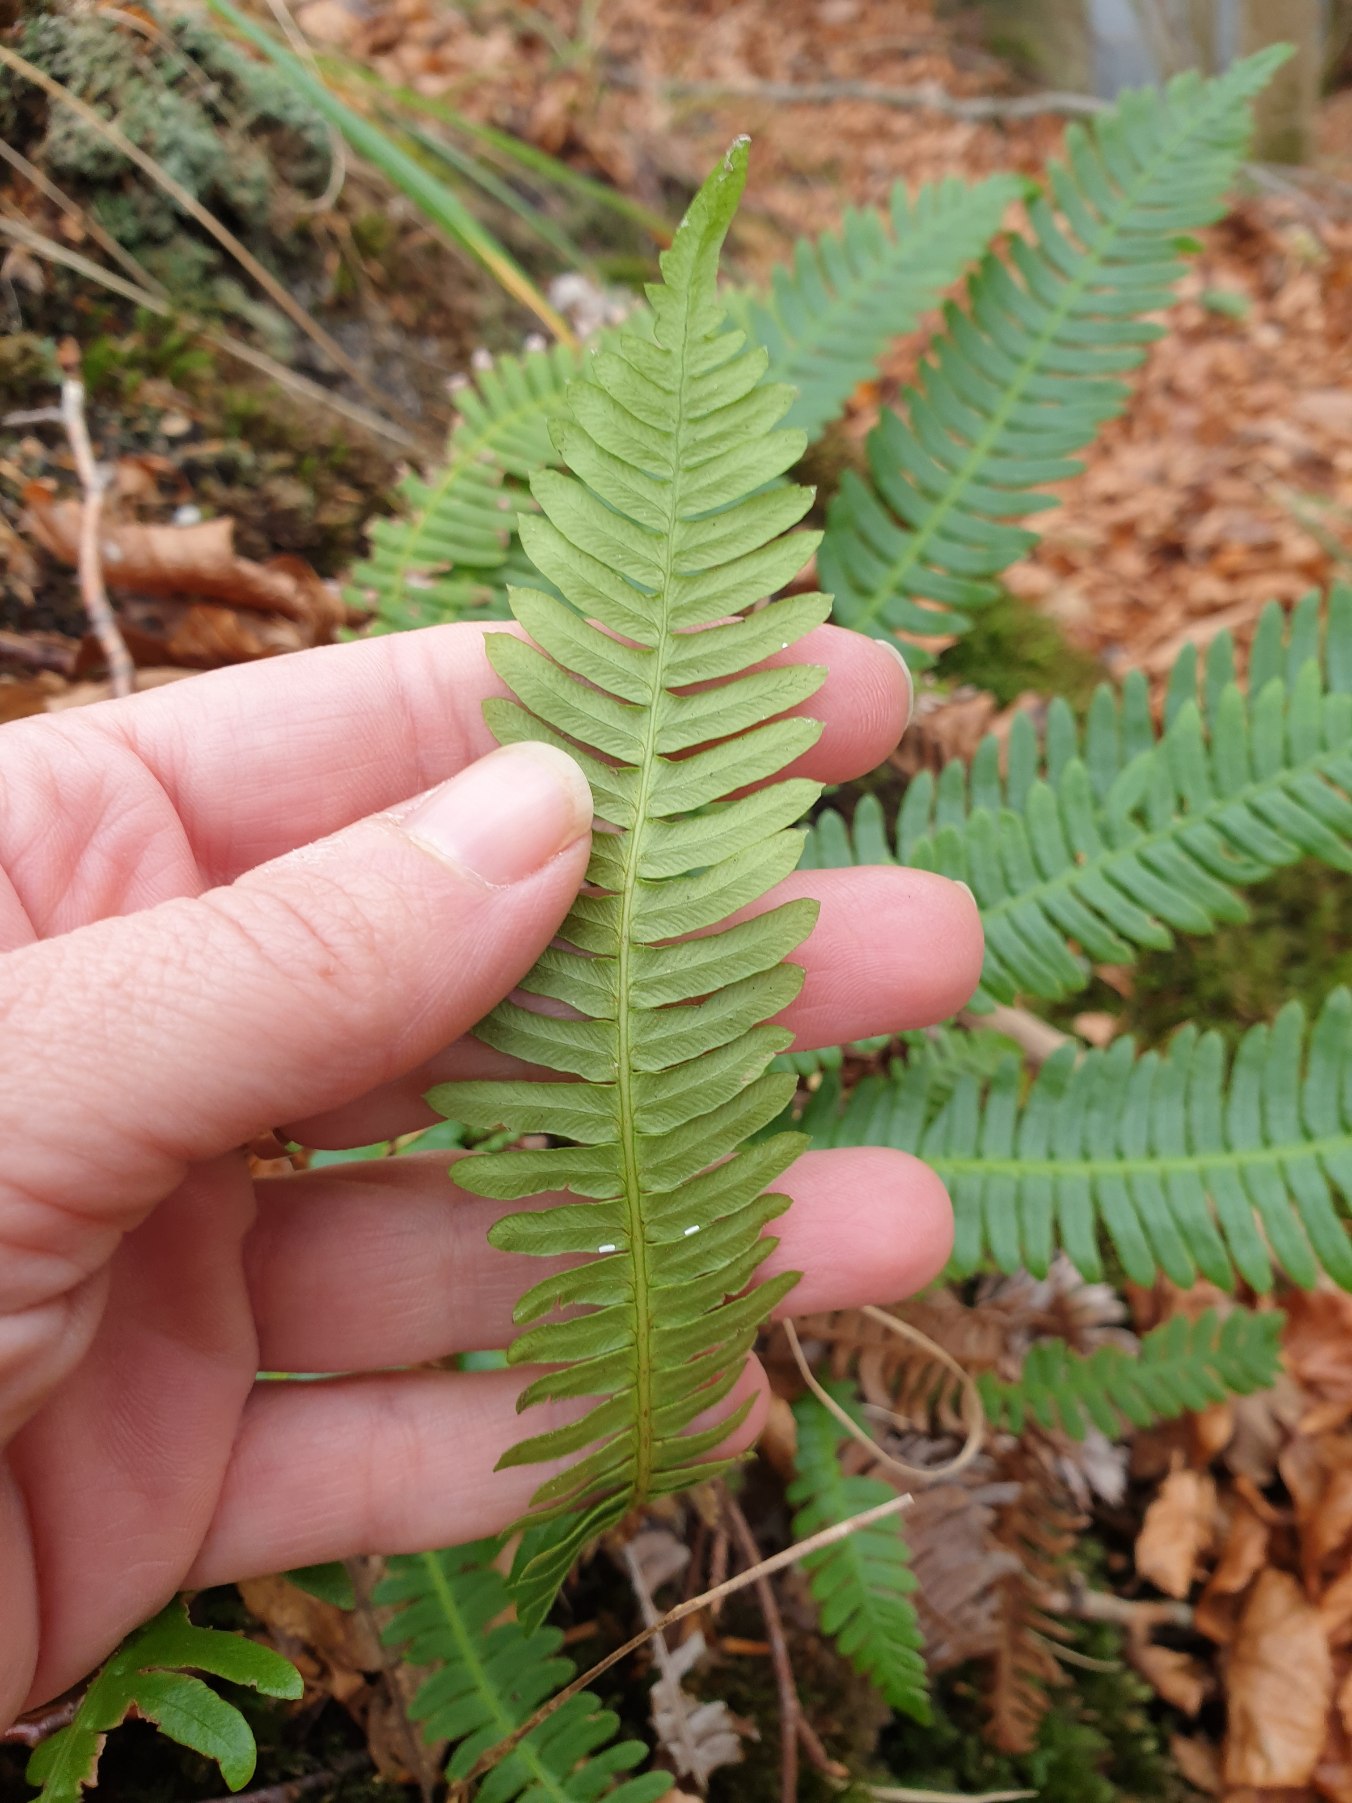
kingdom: Plantae
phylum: Tracheophyta
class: Polypodiopsida
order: Polypodiales
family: Blechnaceae
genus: Struthiopteris
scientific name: Struthiopteris spicant
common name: Kambregne
